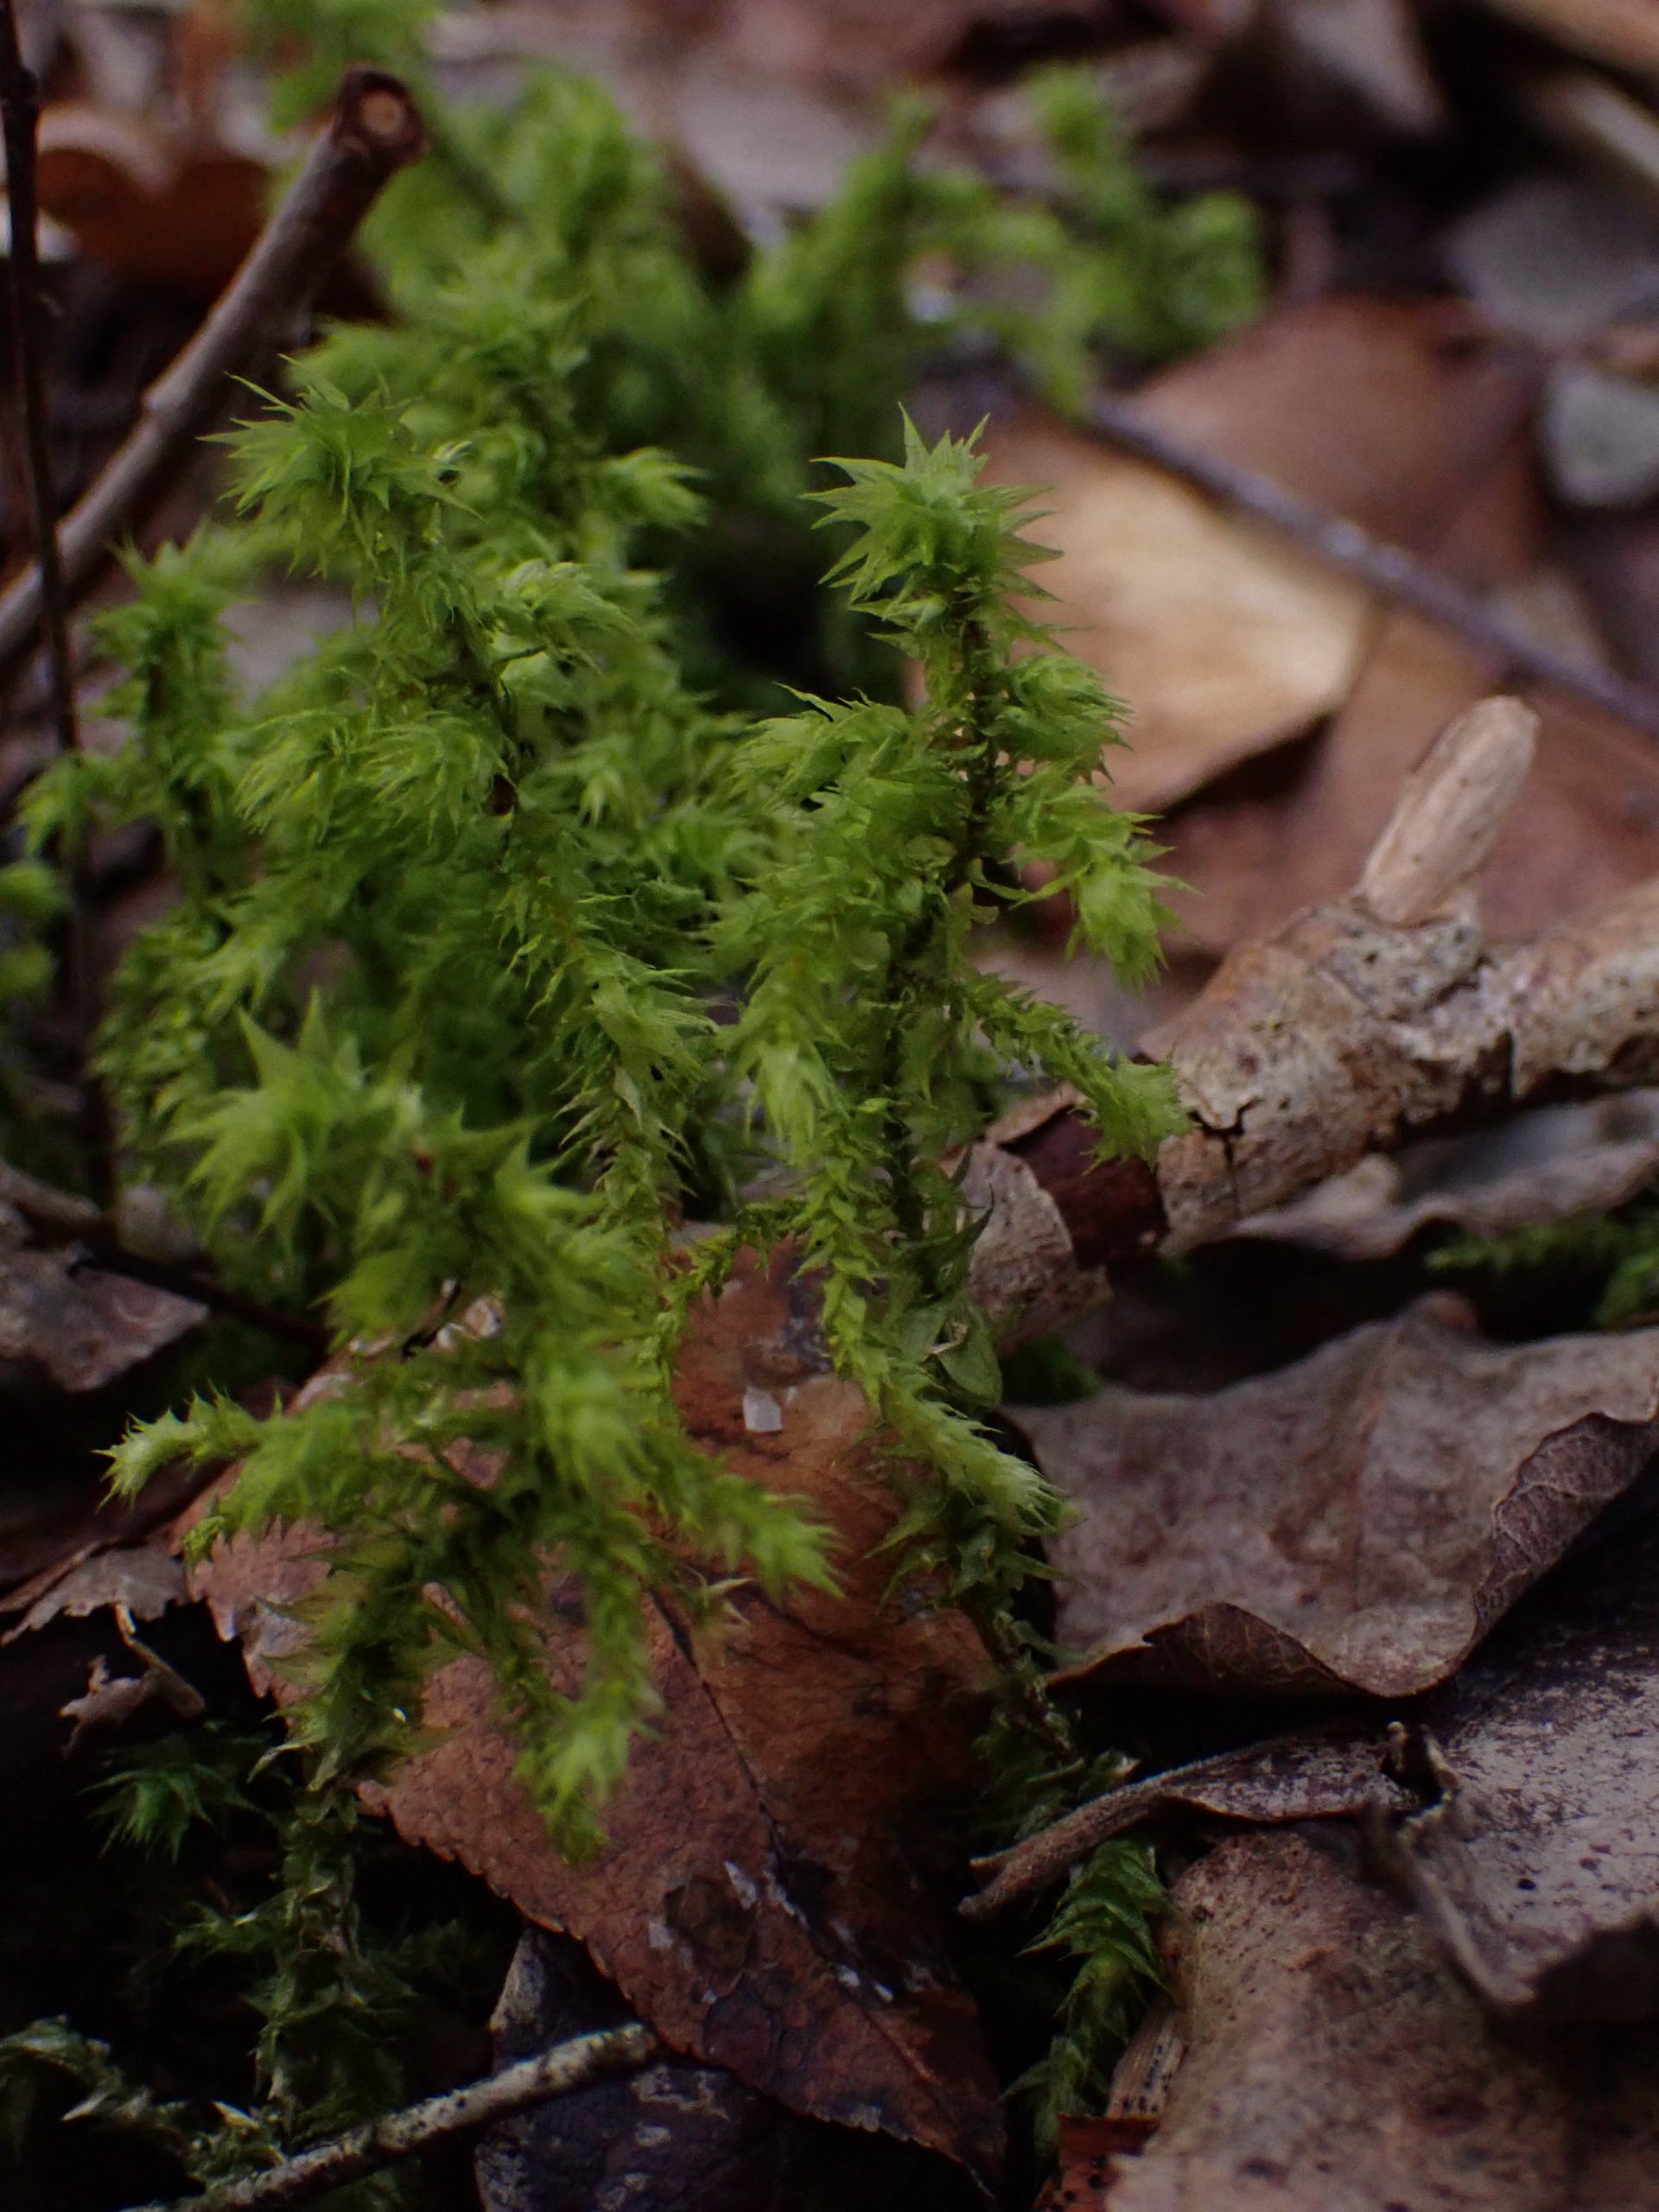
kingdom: Plantae
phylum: Bryophyta
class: Bryopsida
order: Hypnales
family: Hylocomiaceae
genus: Hylocomiadelphus
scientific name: Hylocomiadelphus triquetrus
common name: Stor kransemos
